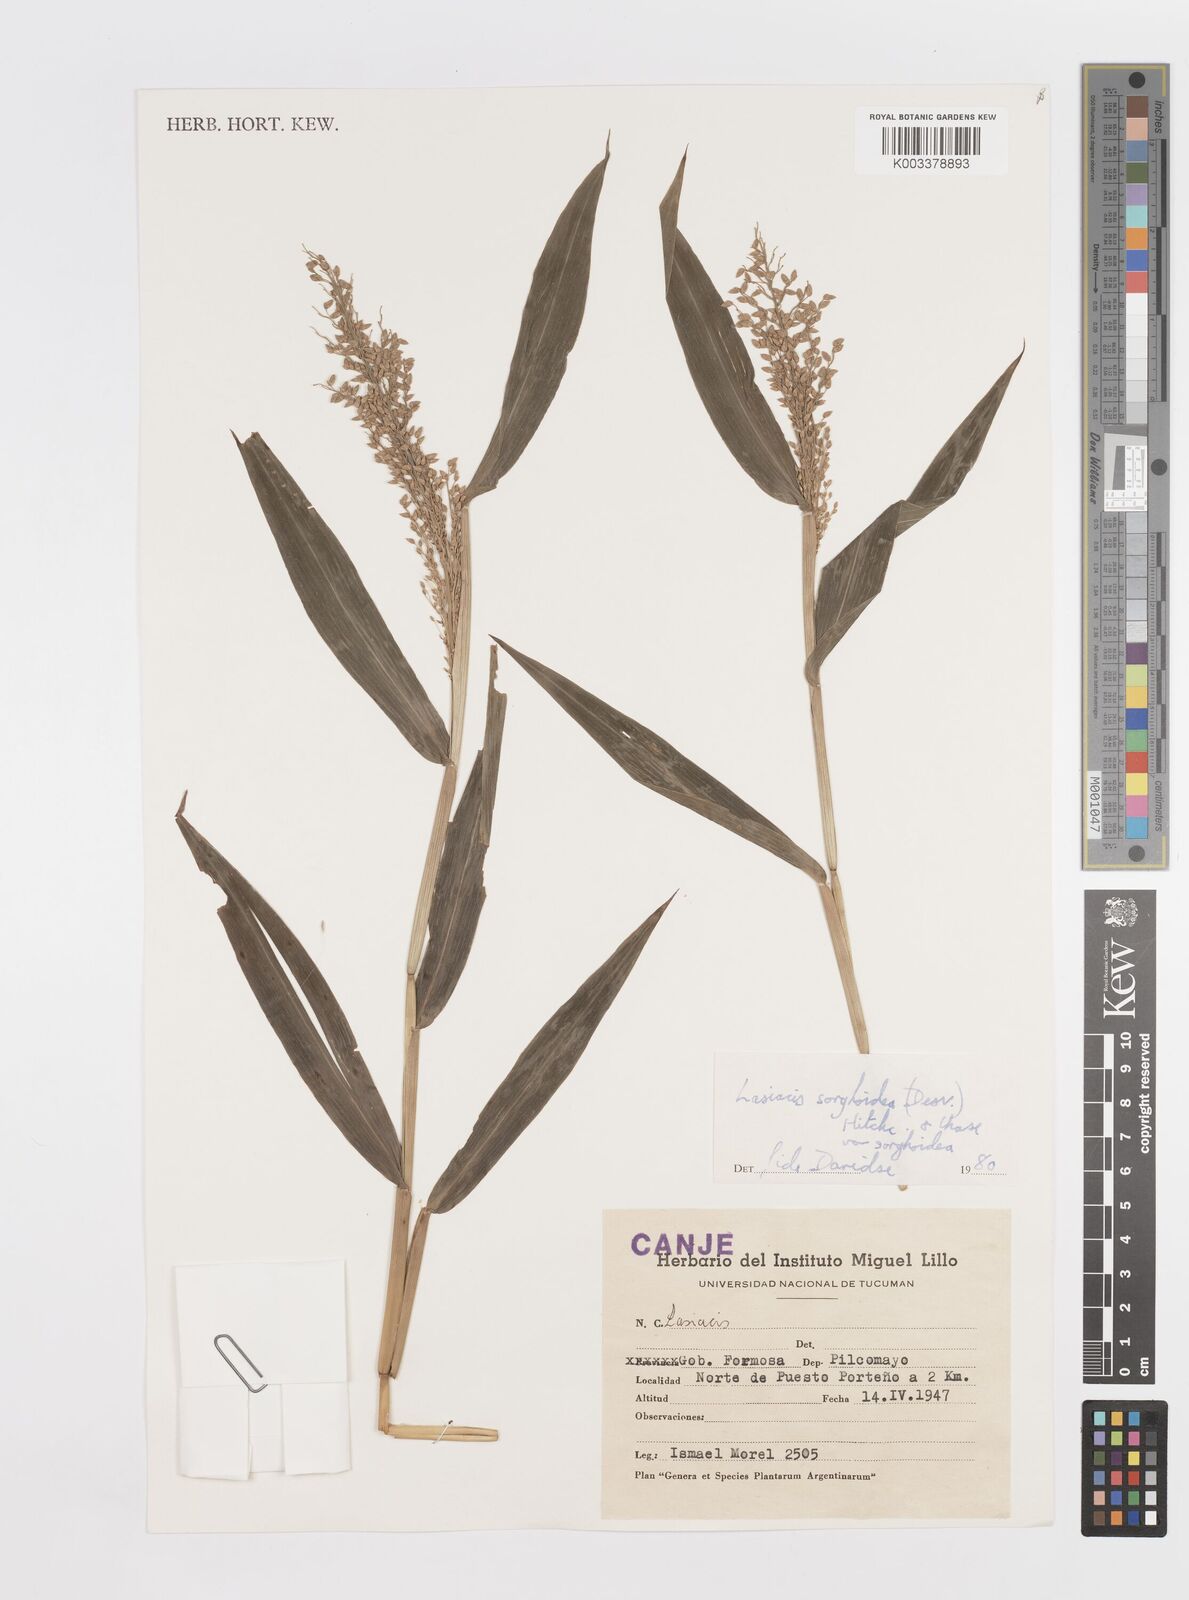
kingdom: Plantae
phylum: Tracheophyta
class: Liliopsida
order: Poales
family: Poaceae
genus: Lasiacis
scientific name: Lasiacis maculata
